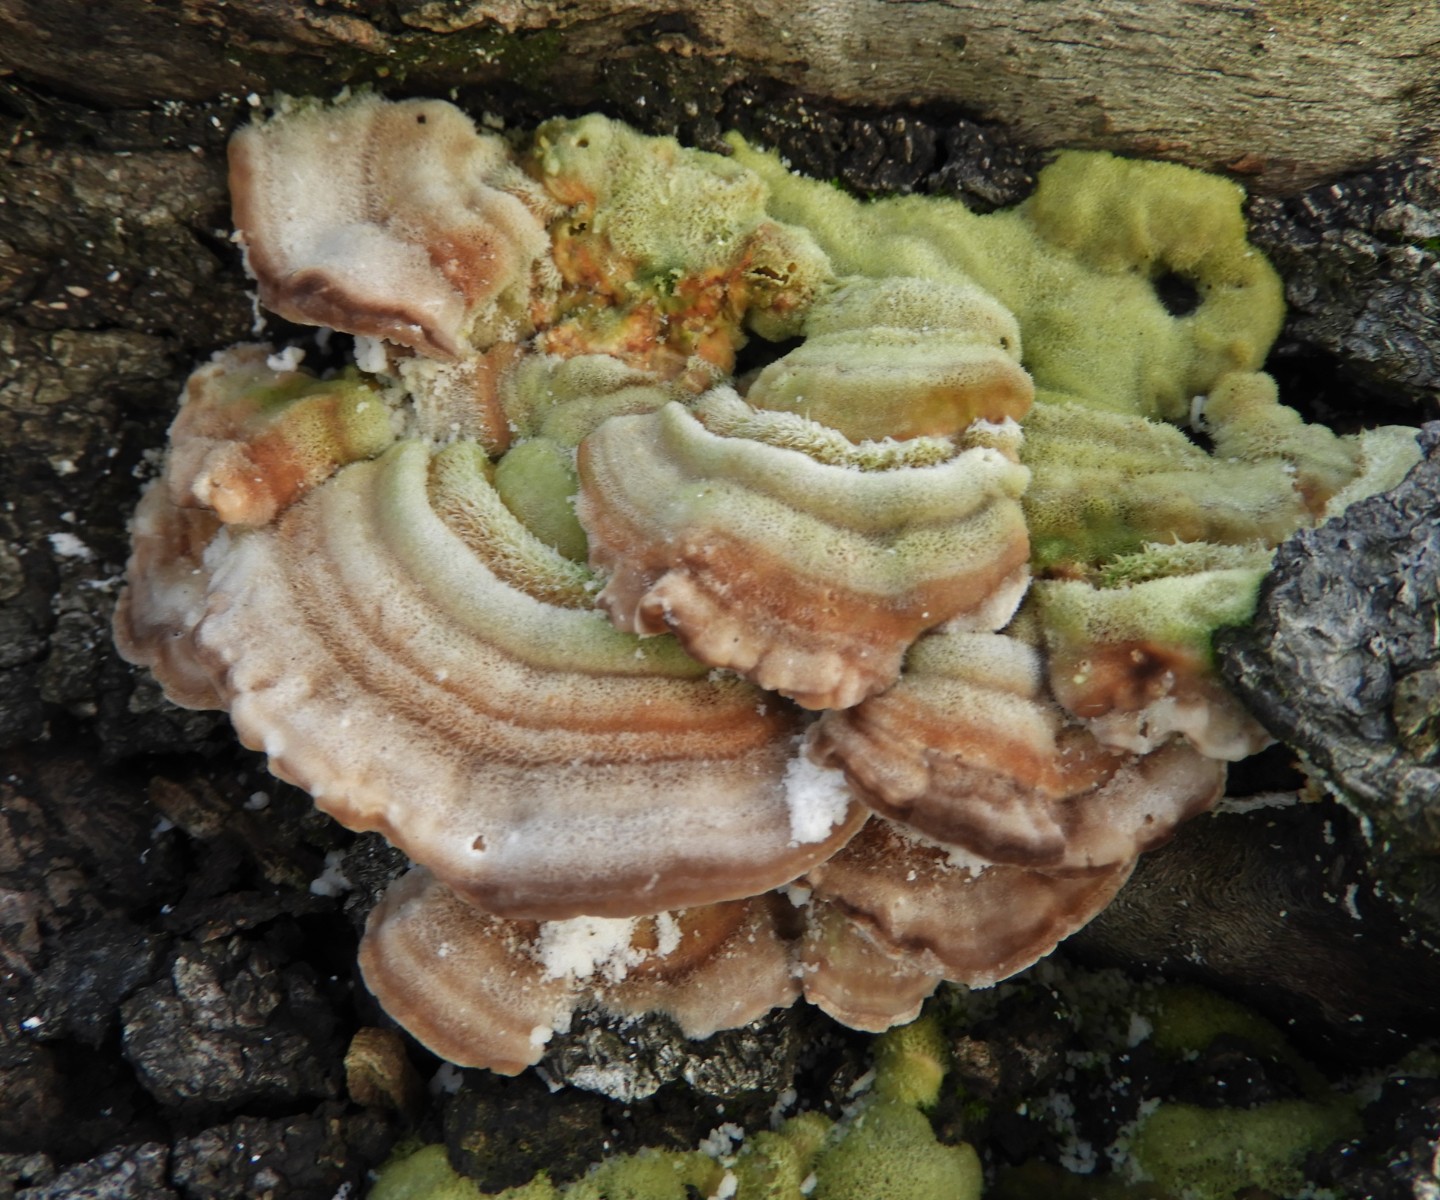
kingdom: Fungi
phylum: Basidiomycota
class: Agaricomycetes
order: Polyporales
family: Polyporaceae
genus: Lenzites
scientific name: Lenzites betulinus
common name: birke-læderporesvamp
